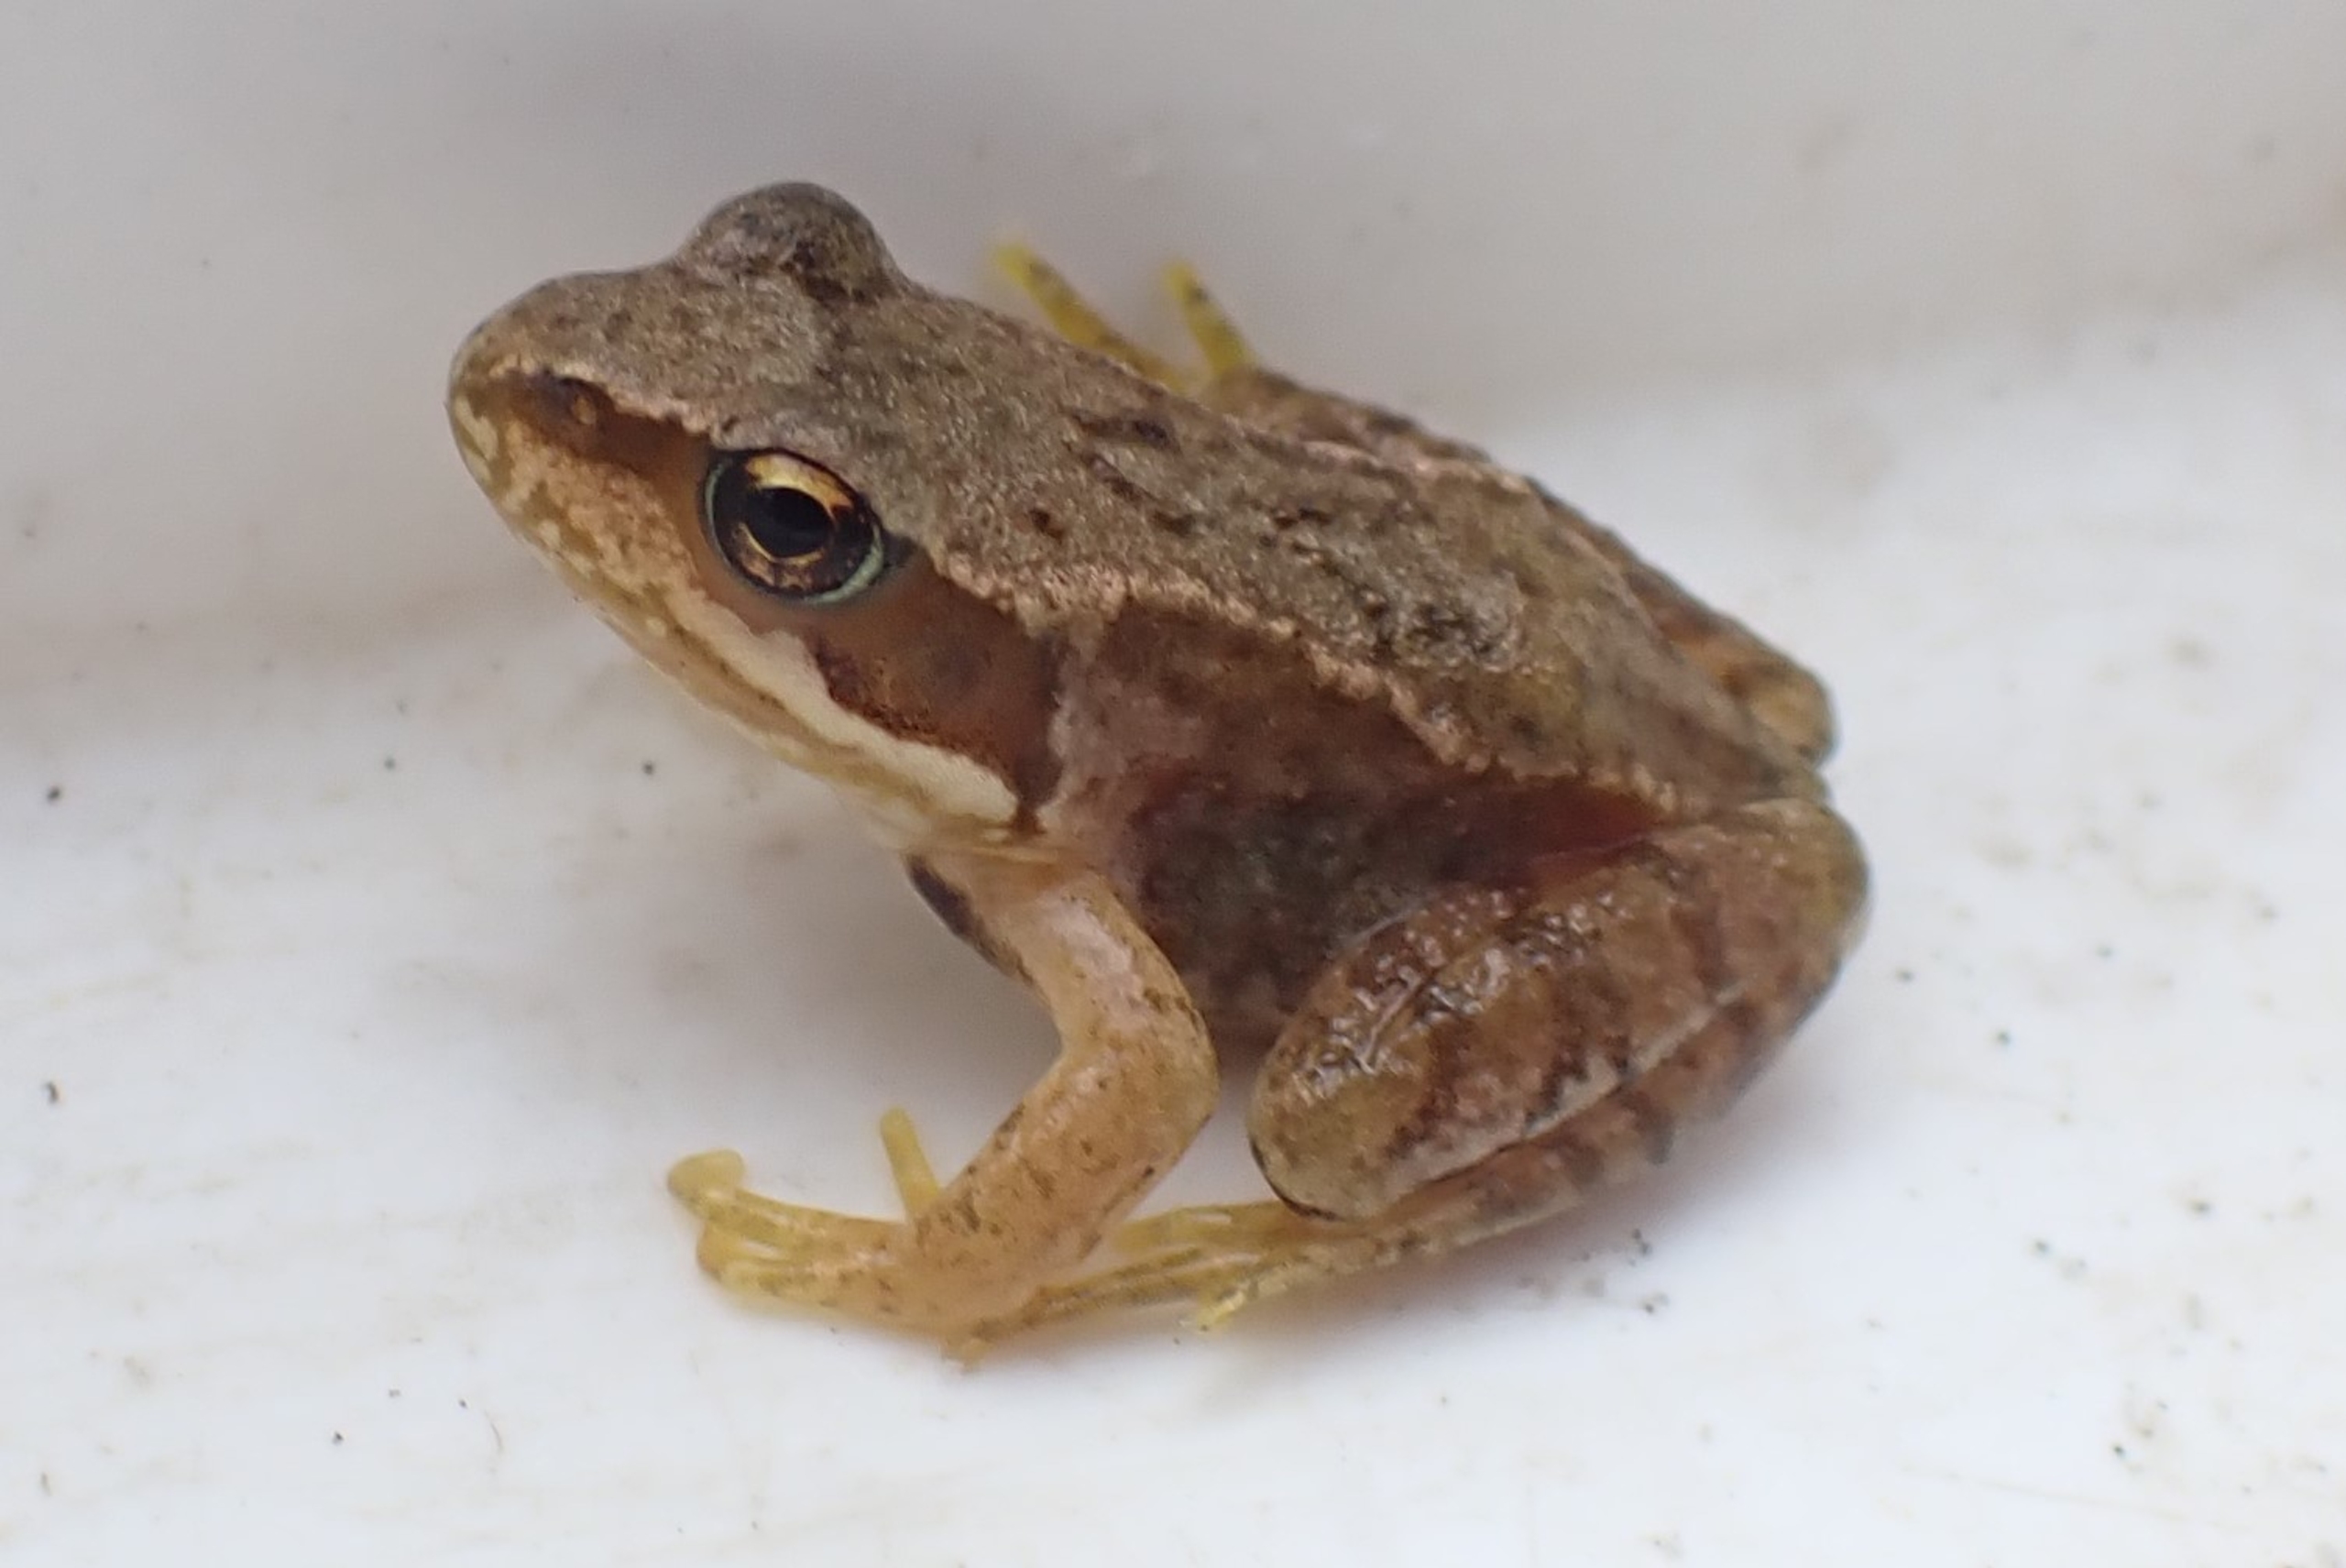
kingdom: Animalia
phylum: Chordata
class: Amphibia
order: Anura
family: Ranidae
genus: Rana
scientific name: Rana temporaria
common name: Butsnudet frø
